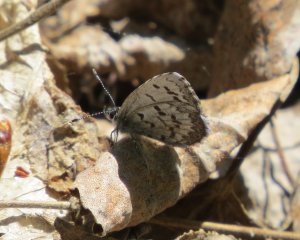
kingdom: Animalia
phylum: Arthropoda
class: Insecta
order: Lepidoptera
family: Lycaenidae
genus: Celastrina
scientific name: Celastrina lucia
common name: Northern Spring Azure
